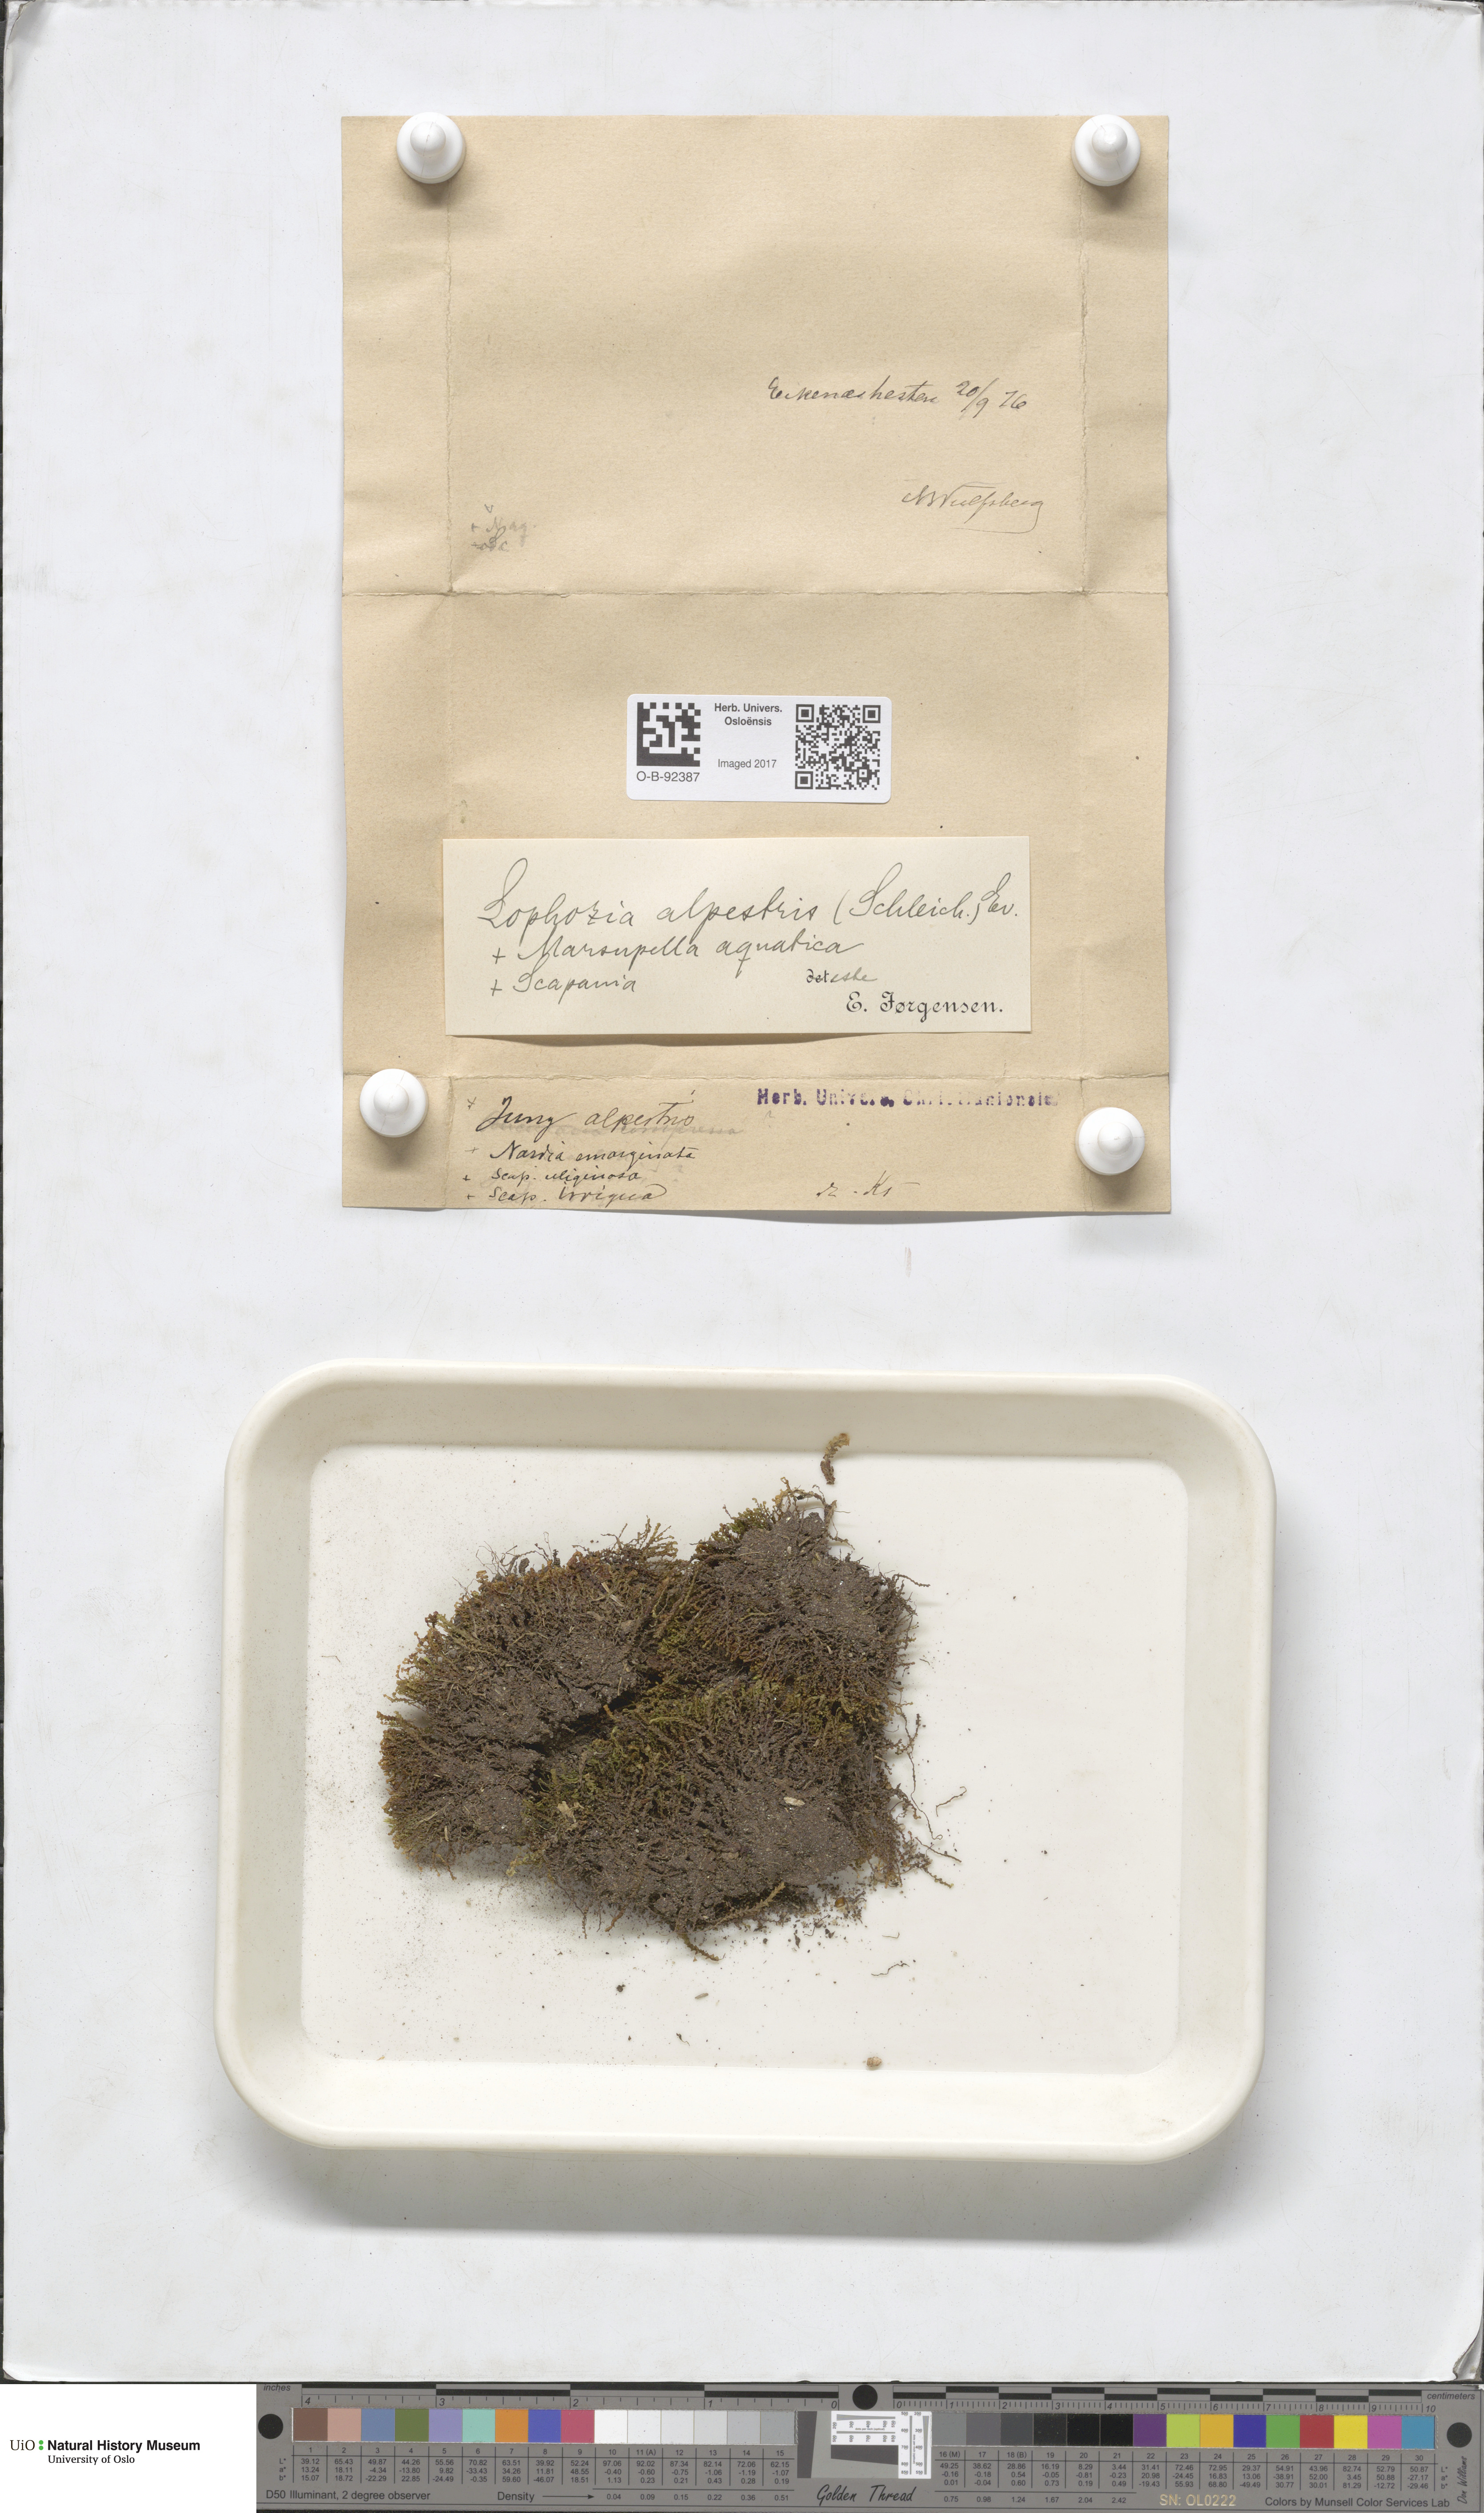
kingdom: Plantae
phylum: Marchantiophyta
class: Jungermanniopsida
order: Jungermanniales
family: Anastrophyllaceae
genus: Barbilophozia
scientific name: Barbilophozia sudetica
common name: Hill notchwort
